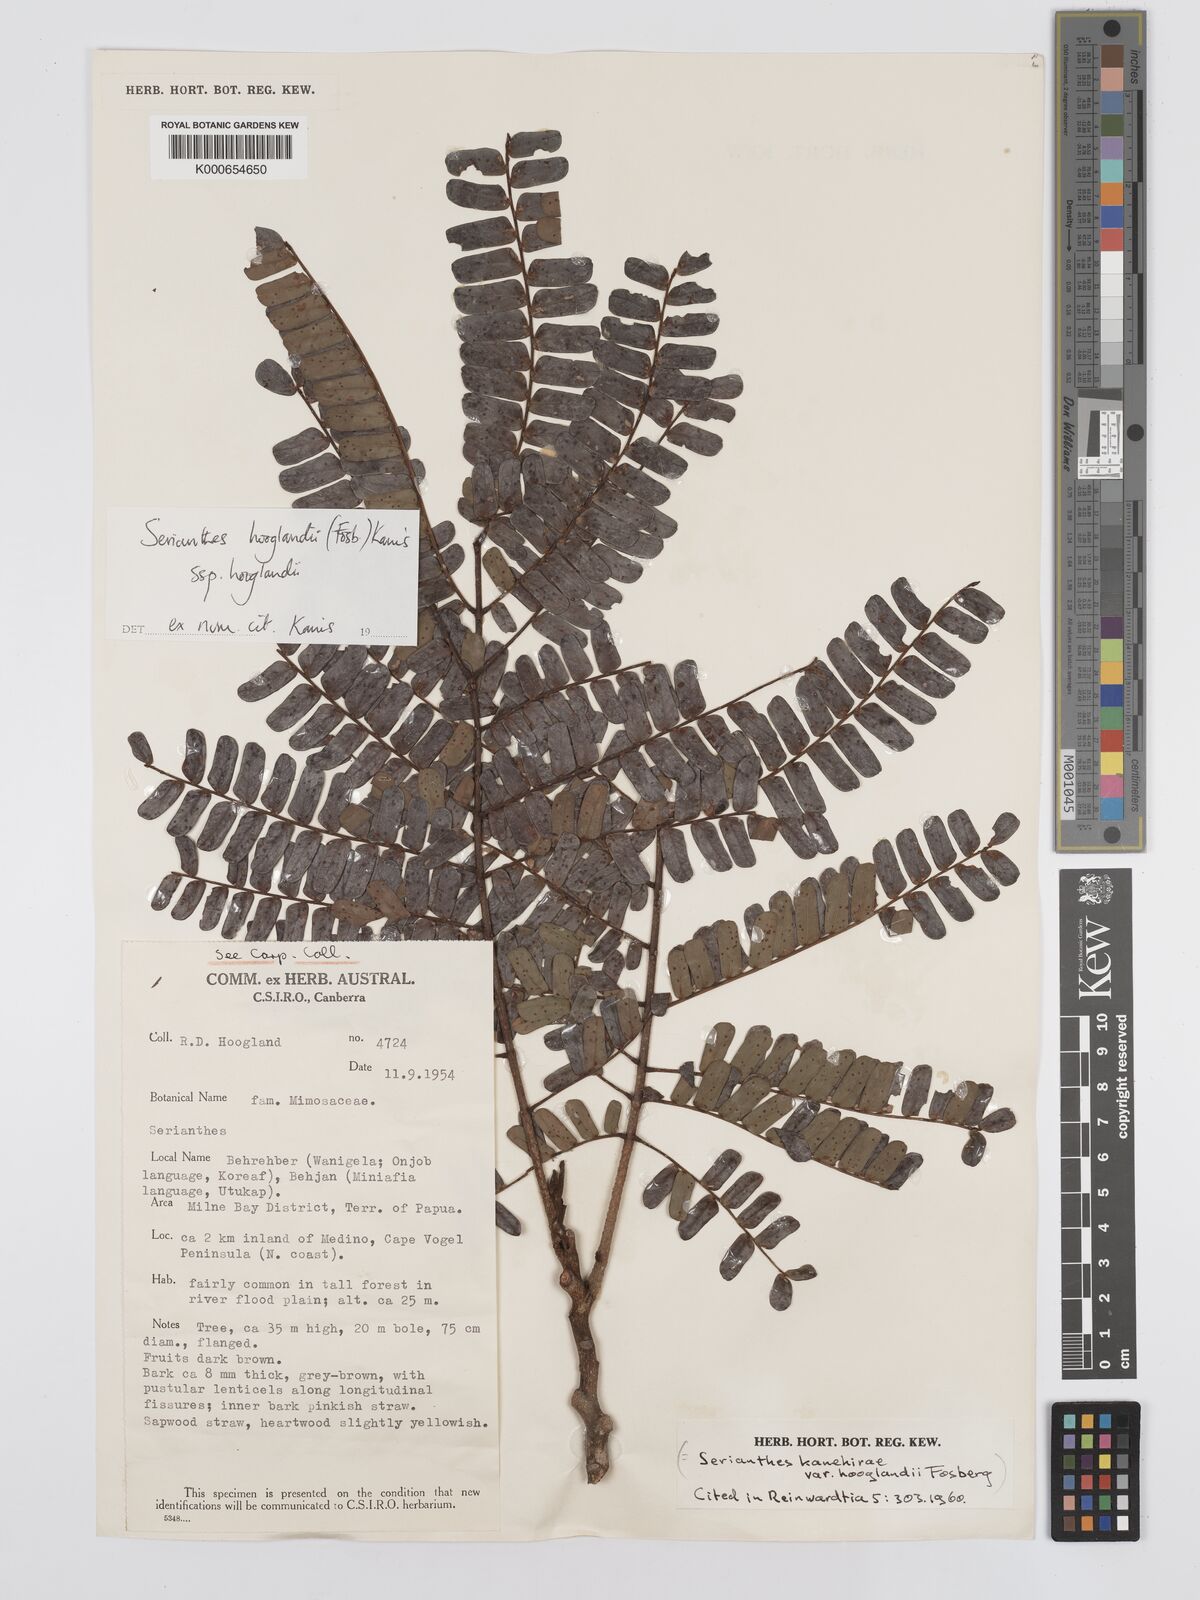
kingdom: Plantae
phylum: Tracheophyta
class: Magnoliopsida
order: Fabales
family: Fabaceae
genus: Serianthes
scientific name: Serianthes hooglandii
